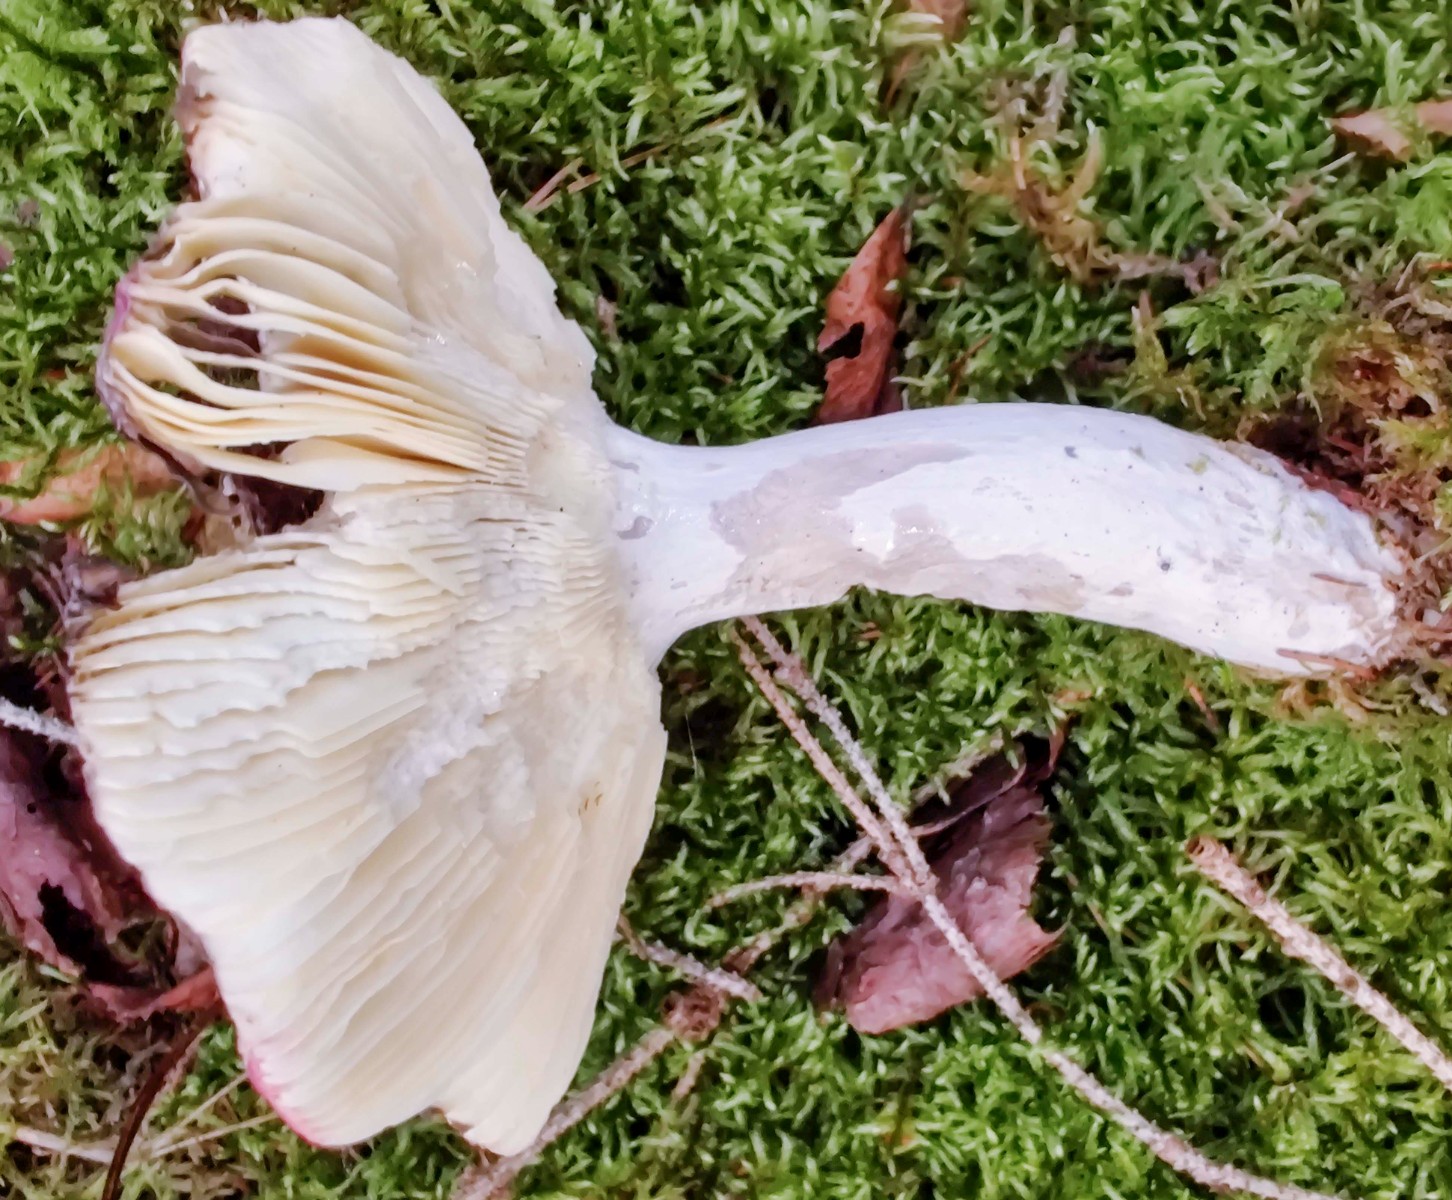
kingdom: Fungi
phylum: Basidiomycota
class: Agaricomycetes
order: Russulales
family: Russulaceae
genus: Russula
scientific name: Russula vinosa
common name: vinrød skørhat
